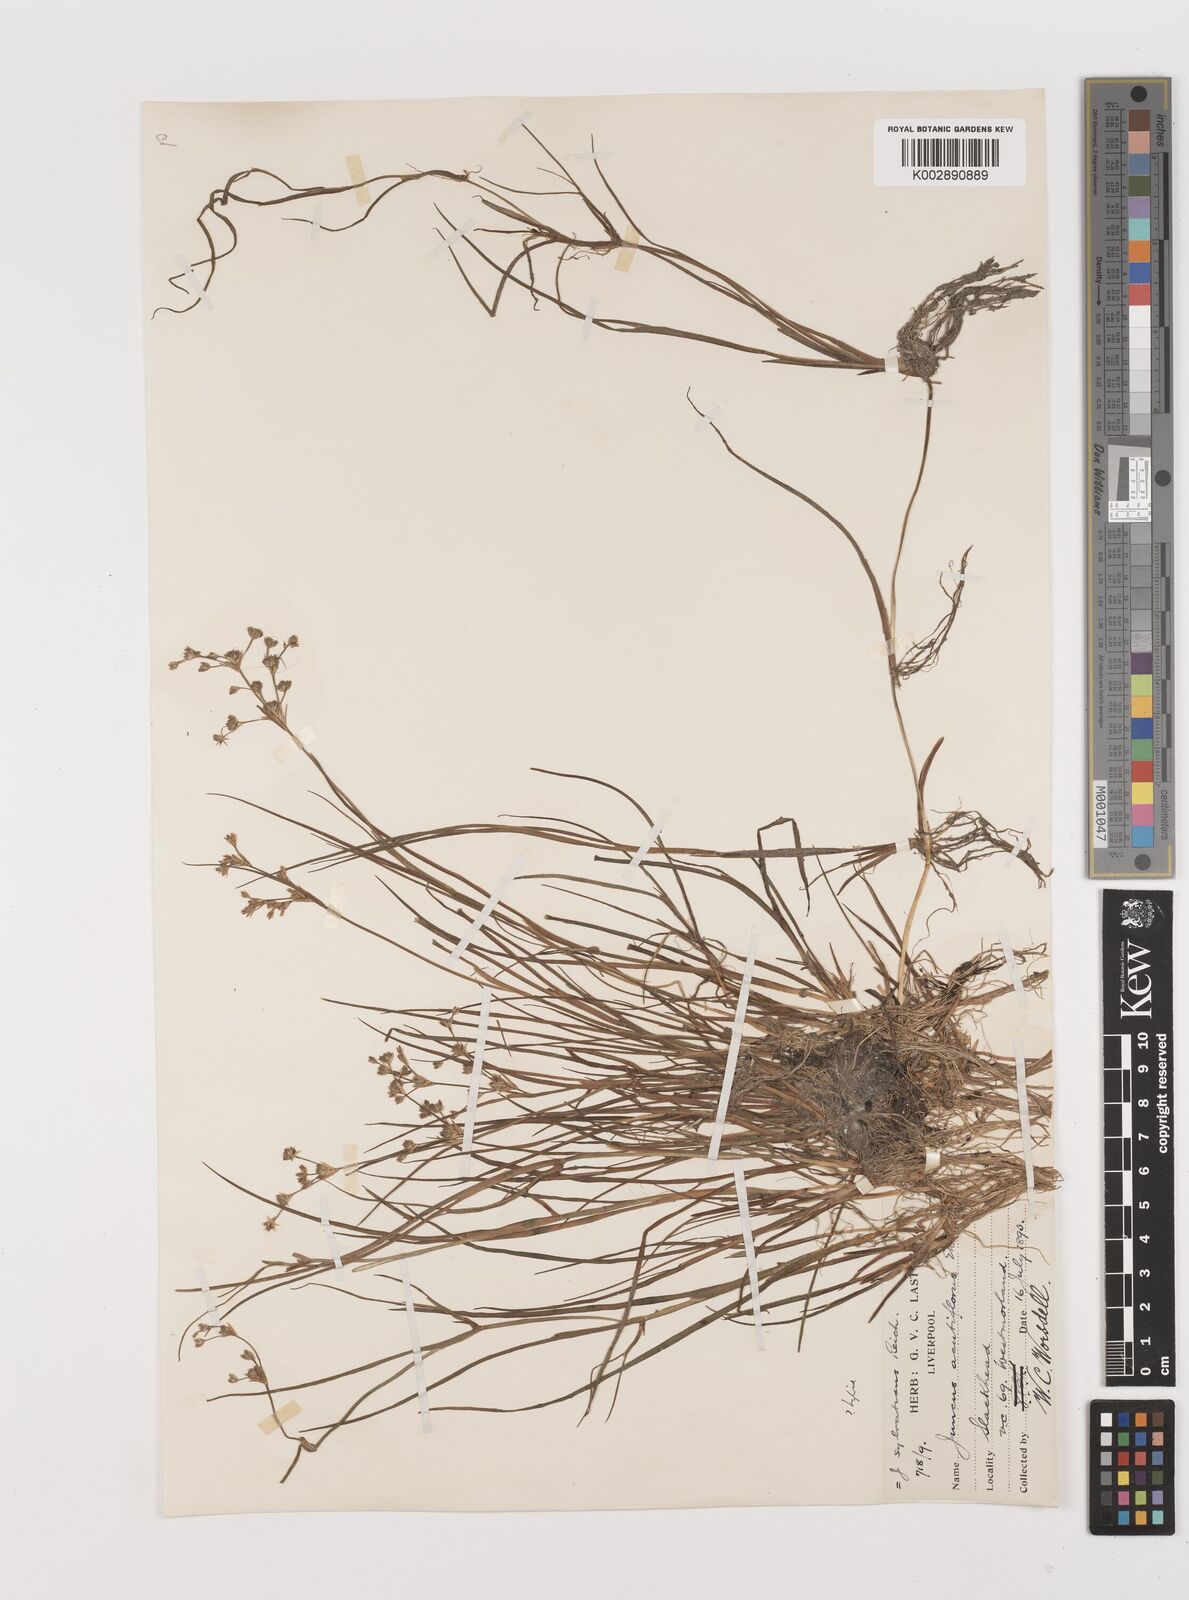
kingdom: Plantae
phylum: Tracheophyta
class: Liliopsida
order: Poales
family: Juncaceae
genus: Juncus
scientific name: Juncus
